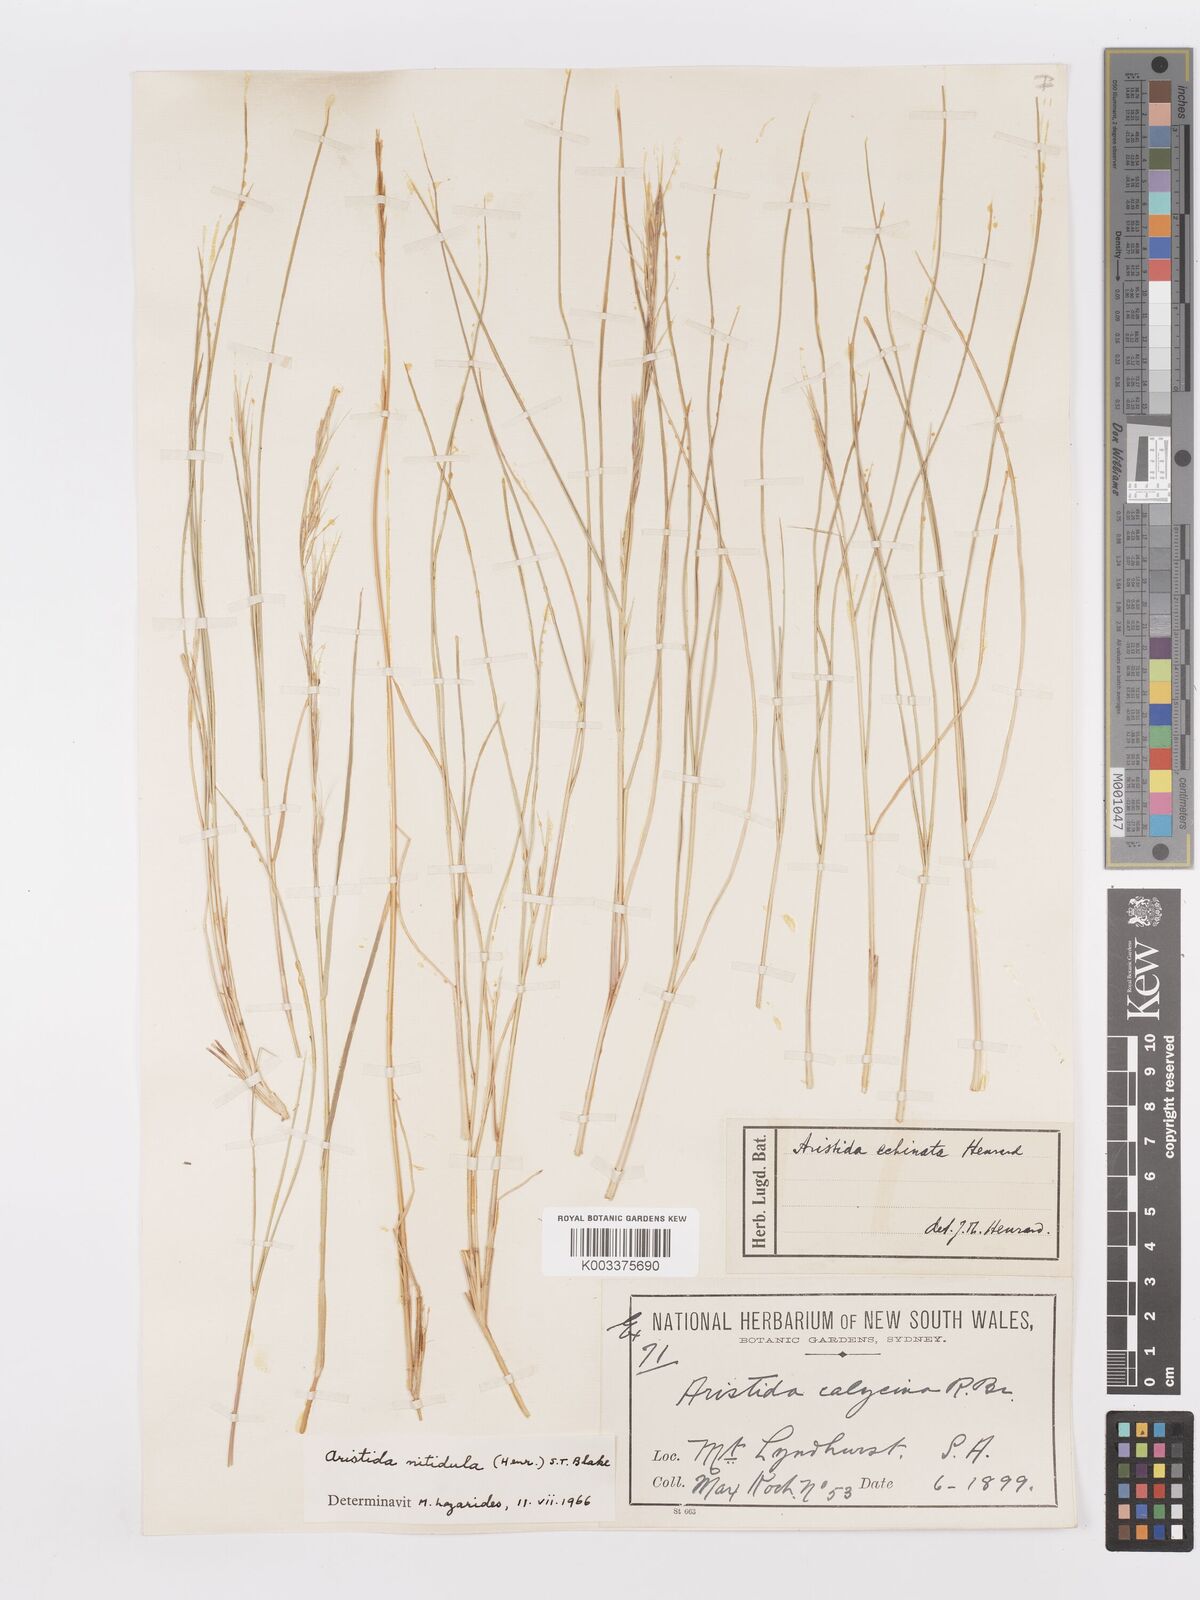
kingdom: Plantae
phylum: Tracheophyta
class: Liliopsida
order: Poales
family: Poaceae
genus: Aristida
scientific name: Aristida nitidula
